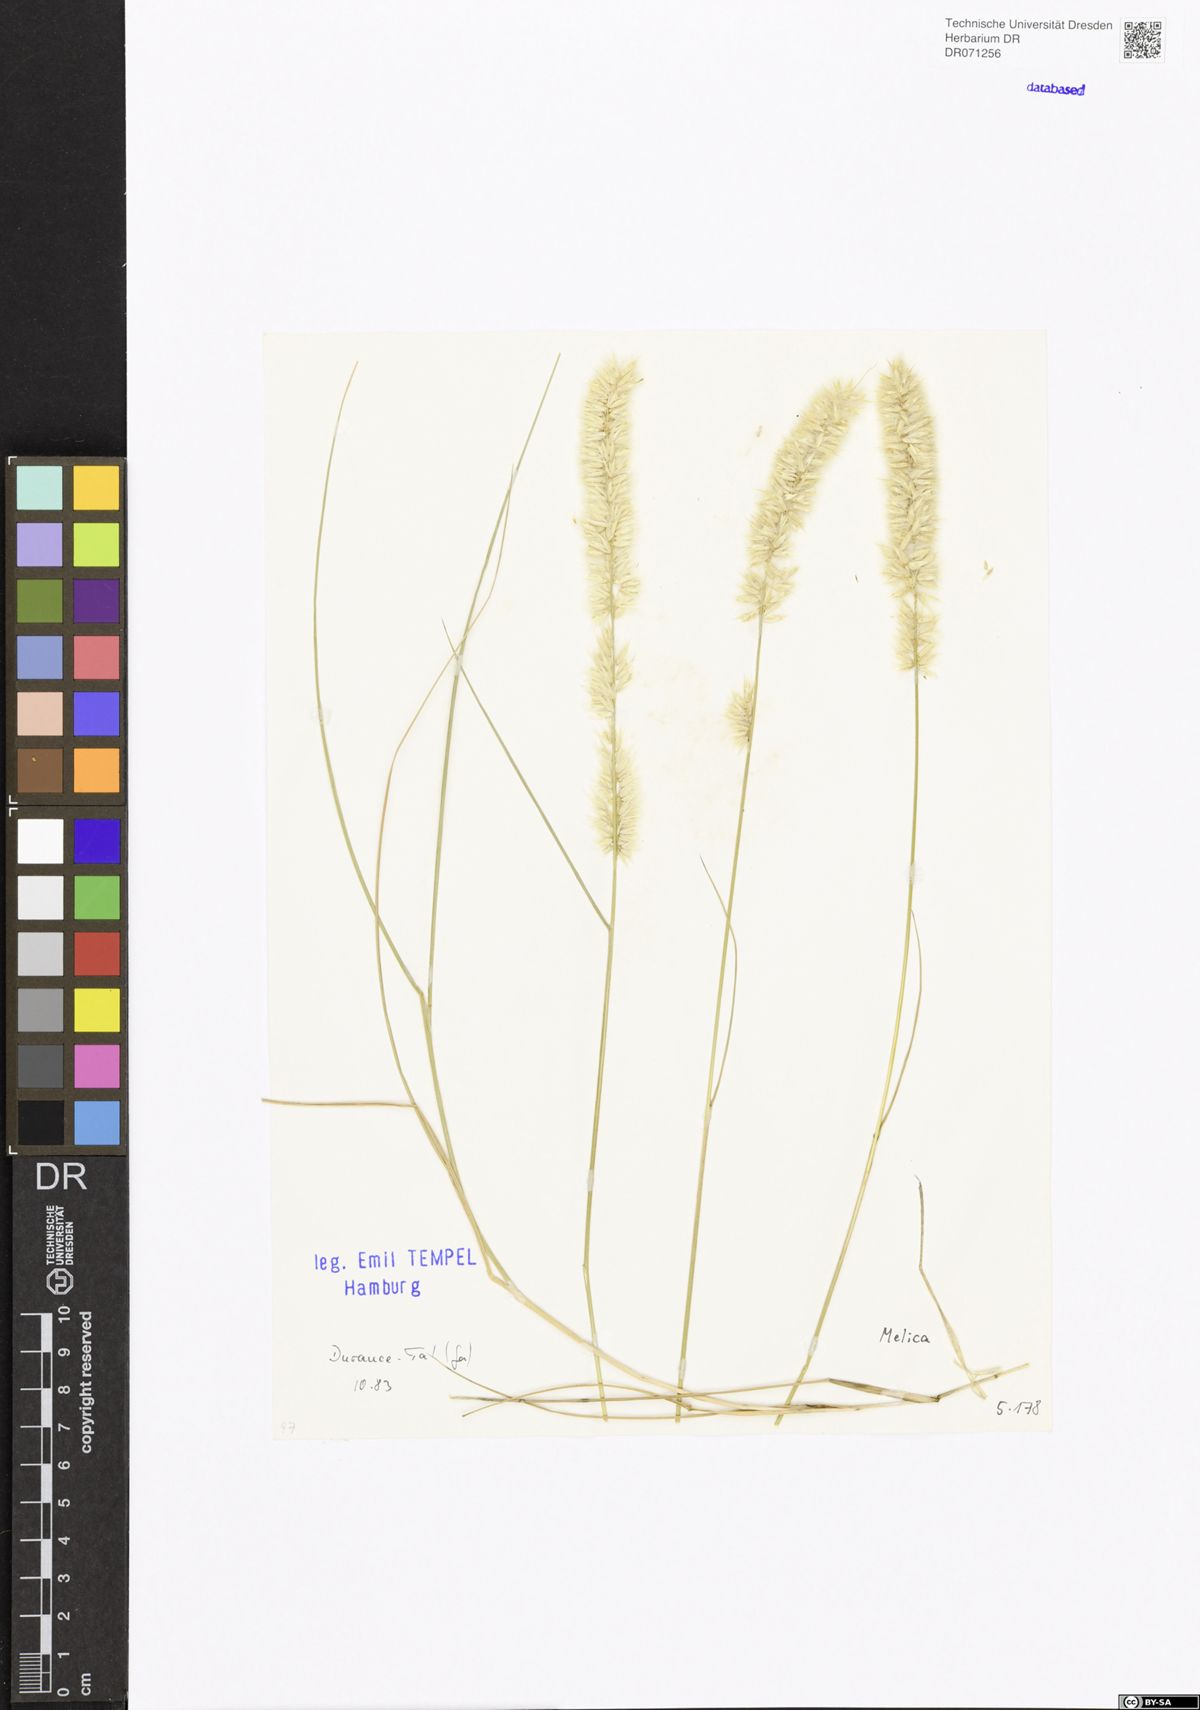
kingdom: Plantae
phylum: Tracheophyta
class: Liliopsida
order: Poales
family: Poaceae
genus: Melica
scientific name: Melica
